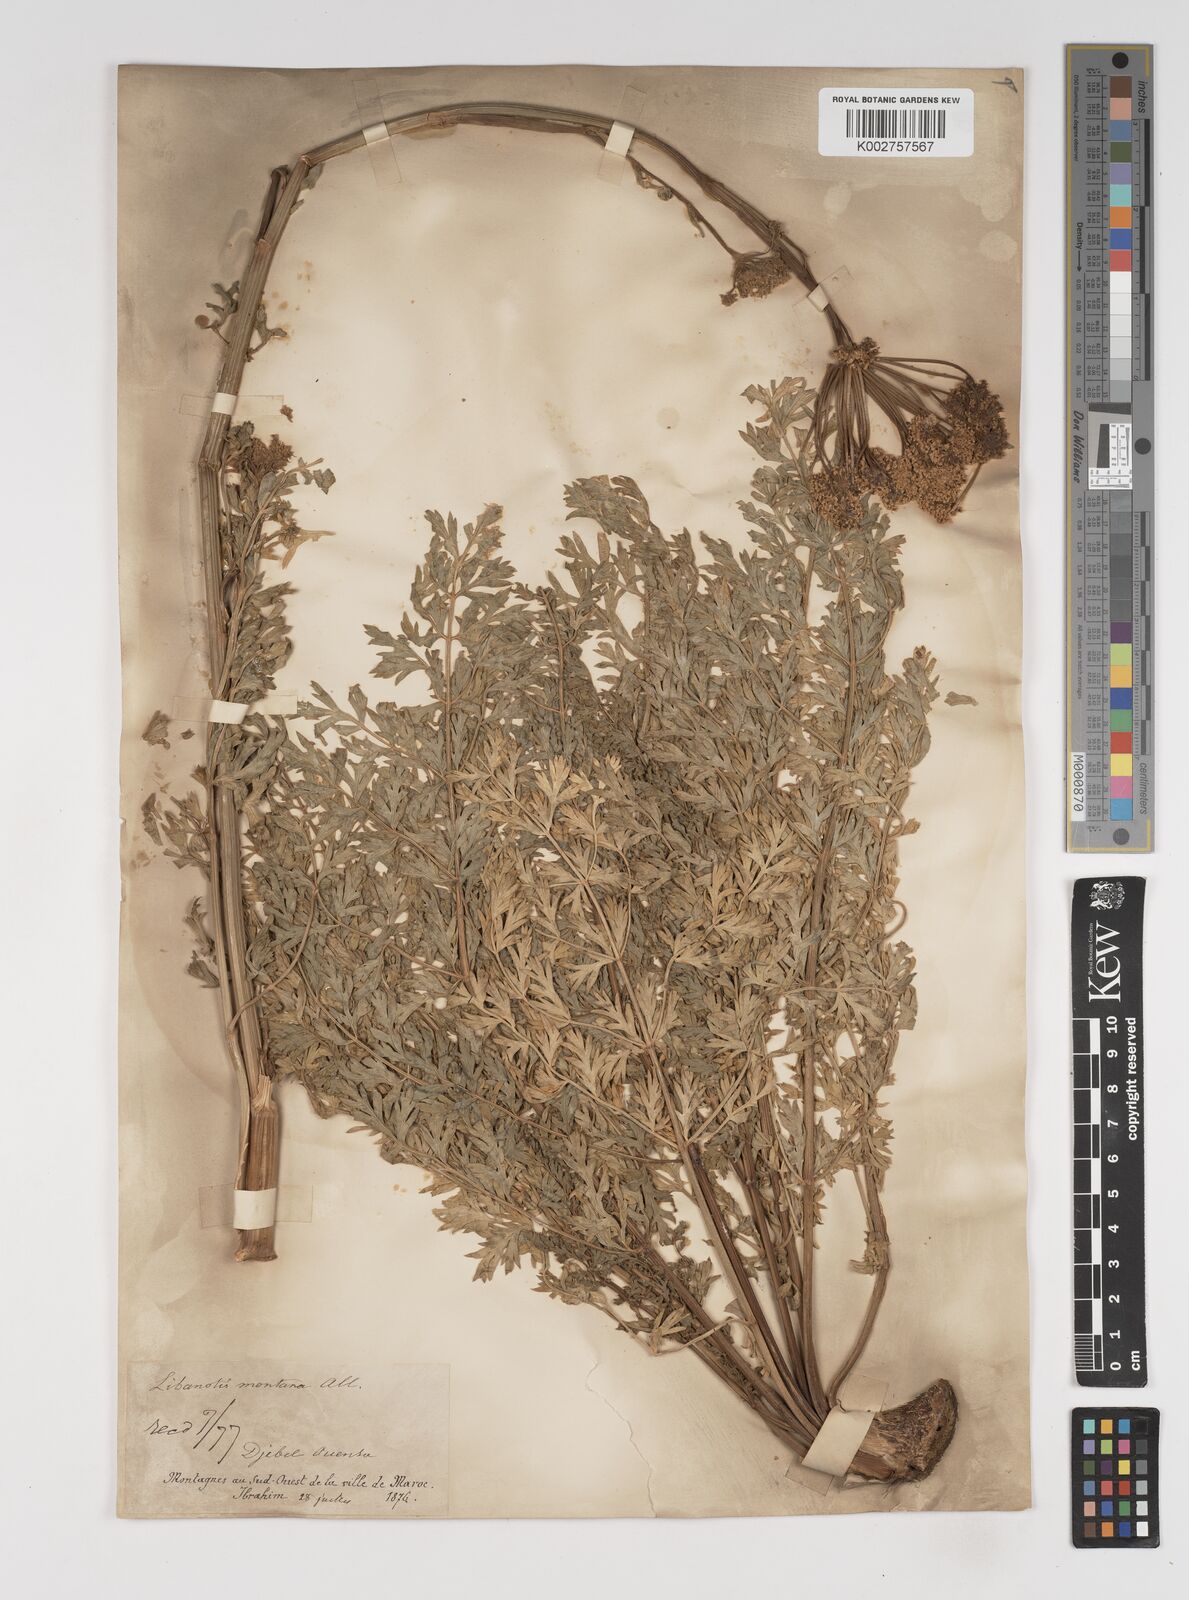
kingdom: Plantae
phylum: Tracheophyta
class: Magnoliopsida
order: Apiales
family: Apiaceae
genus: Seseli
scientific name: Seseli montanum
